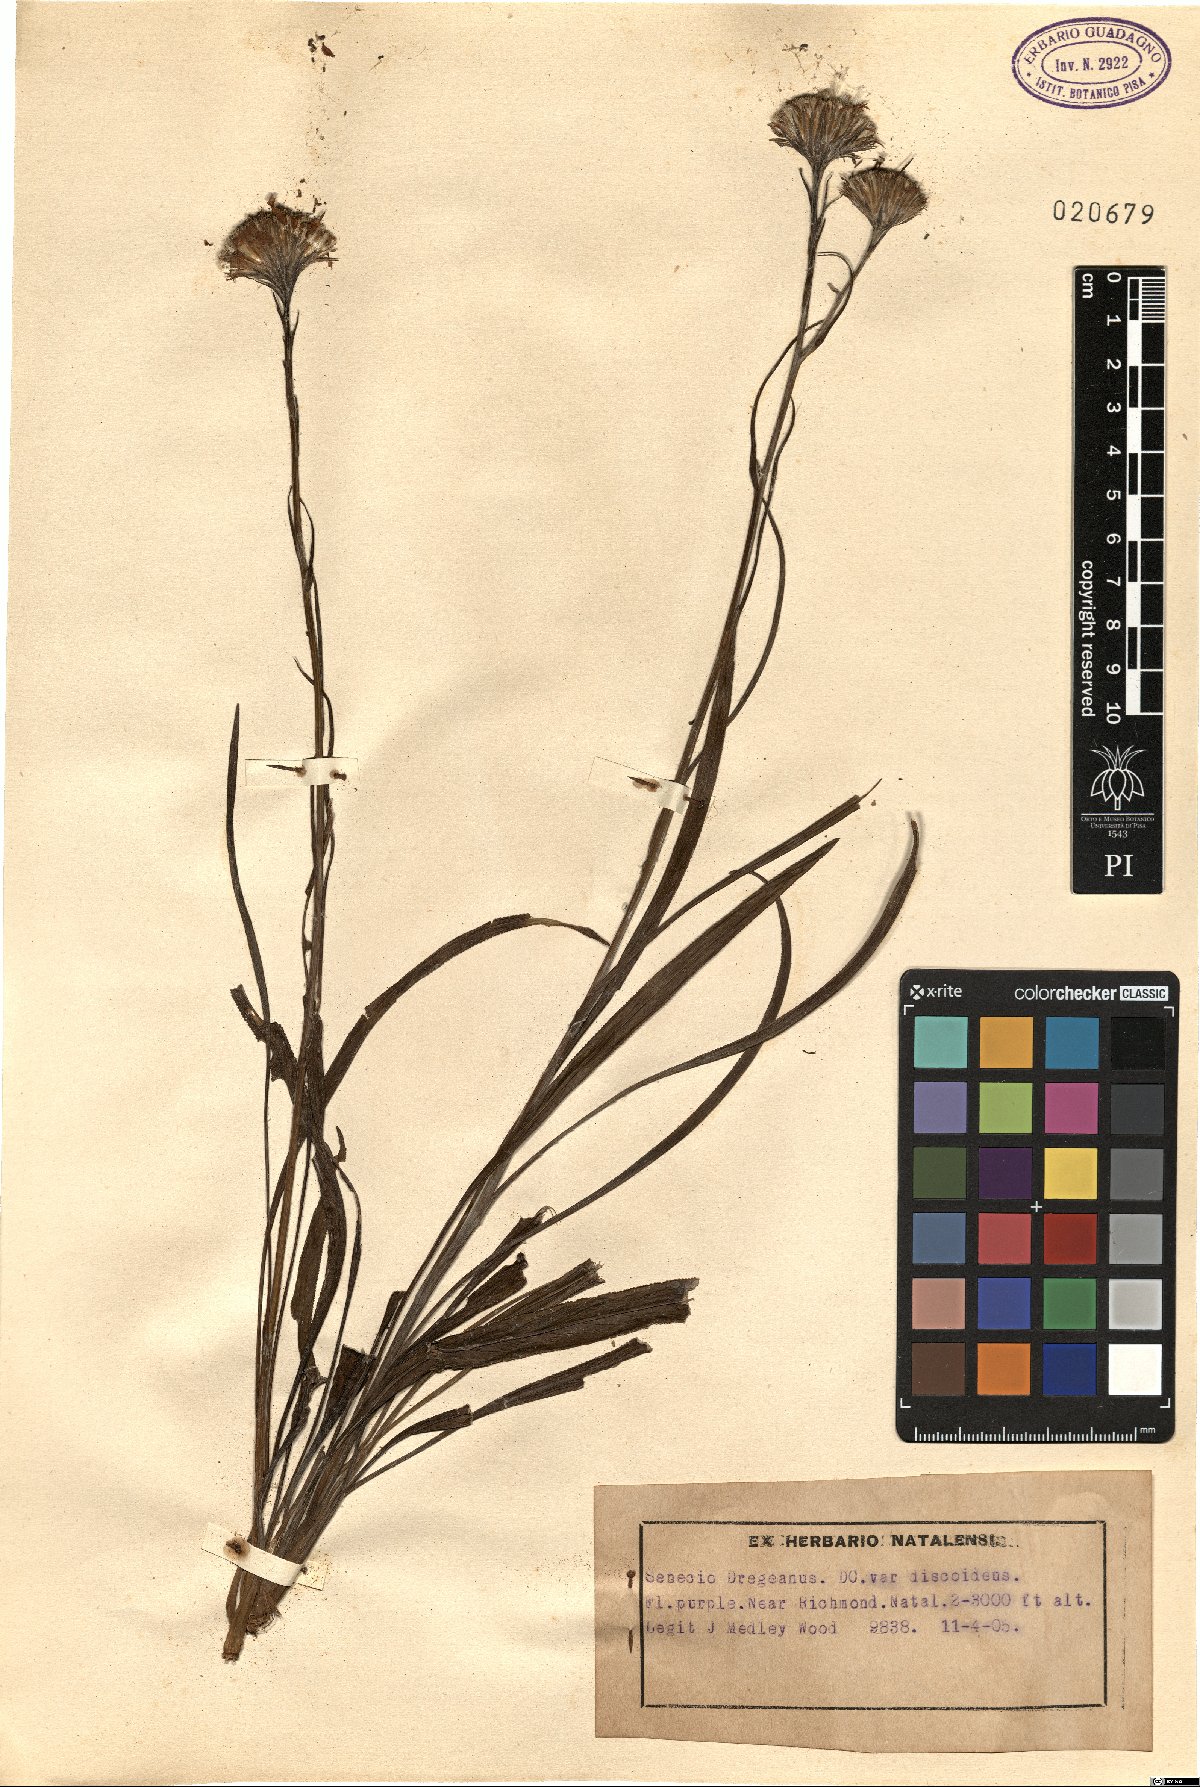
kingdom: Plantae
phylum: Tracheophyta
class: Magnoliopsida
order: Asterales
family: Asteraceae
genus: Senecio
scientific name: Senecio discodregeanus
